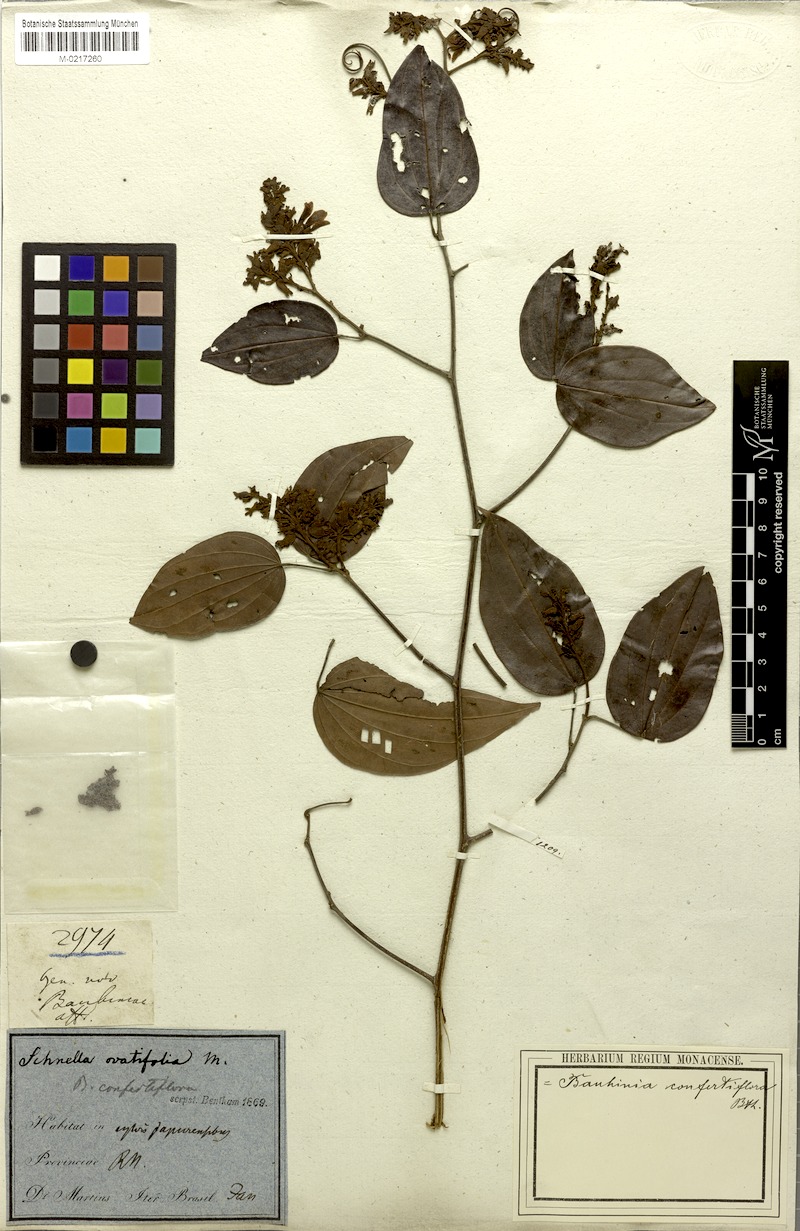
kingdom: Plantae
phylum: Tracheophyta
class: Magnoliopsida
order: Fabales
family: Fabaceae
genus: Schnella
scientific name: Schnella confertiflora
